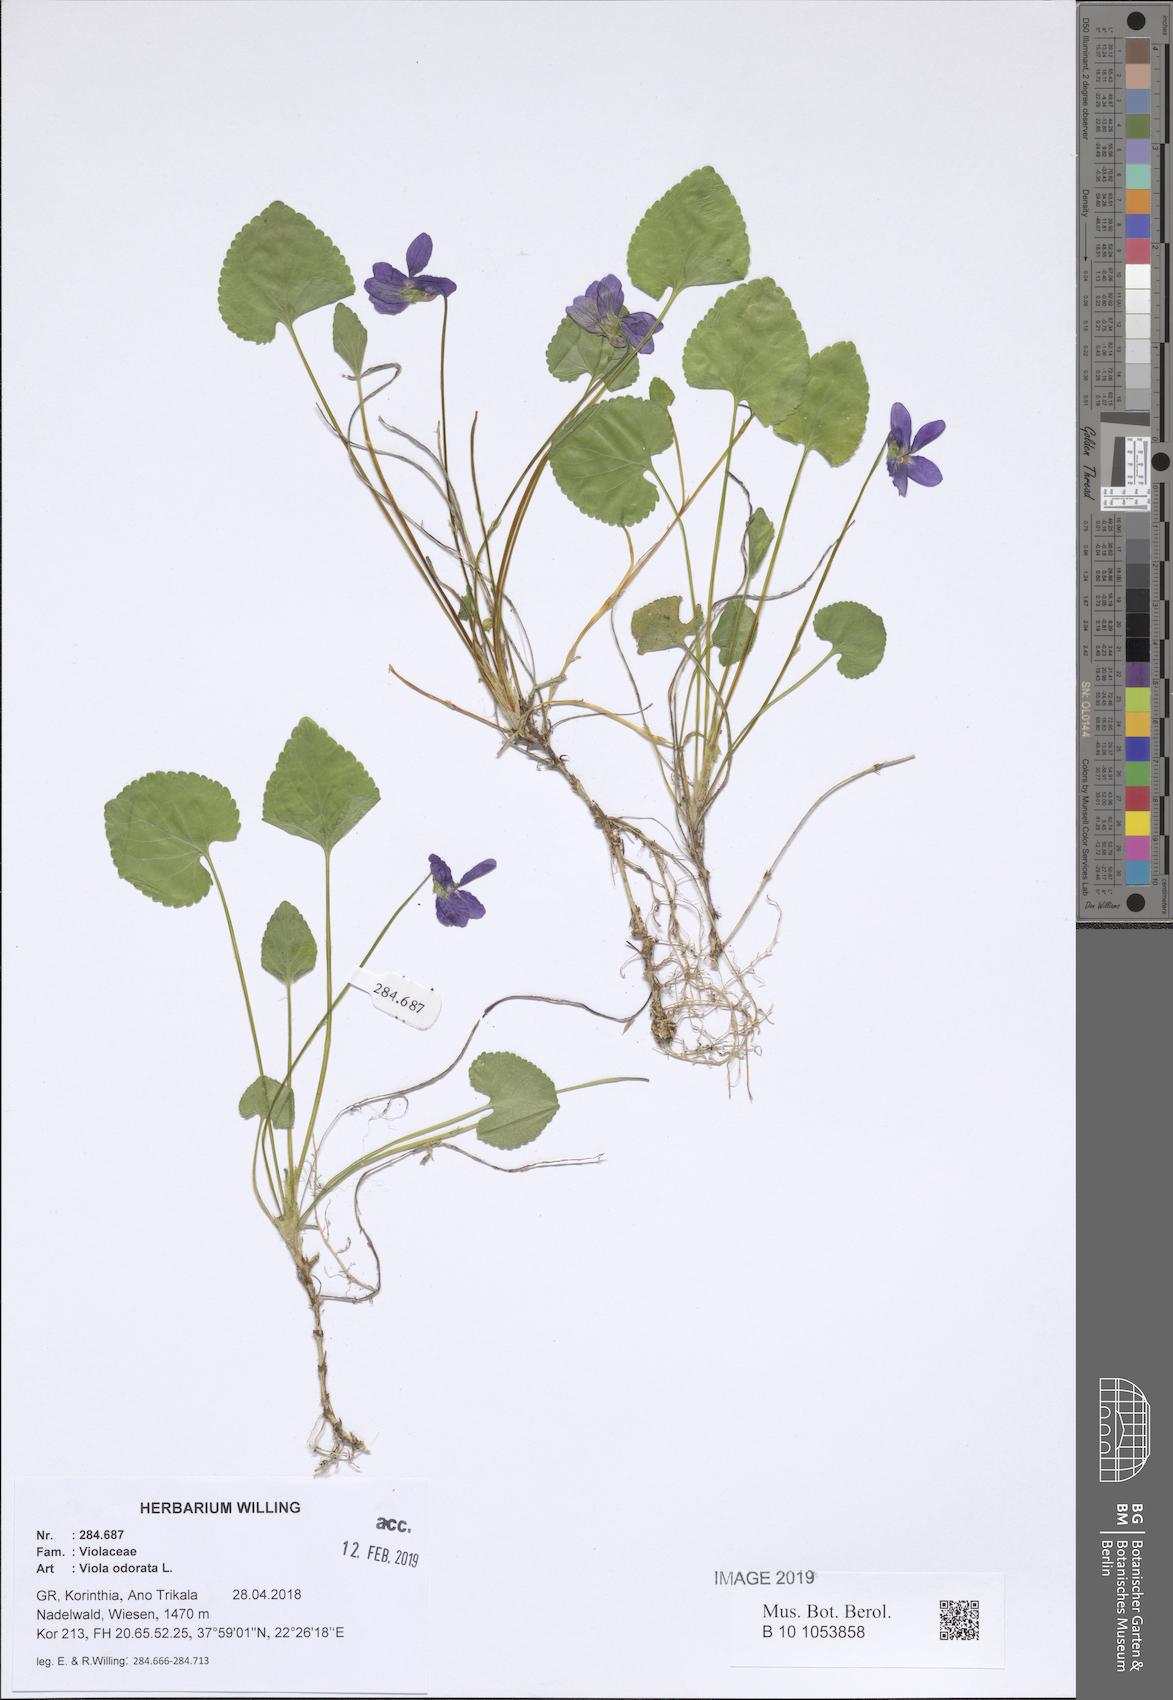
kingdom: Plantae
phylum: Tracheophyta
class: Magnoliopsida
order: Malpighiales
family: Violaceae
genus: Viola
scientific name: Viola odorata
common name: Sweet violet
